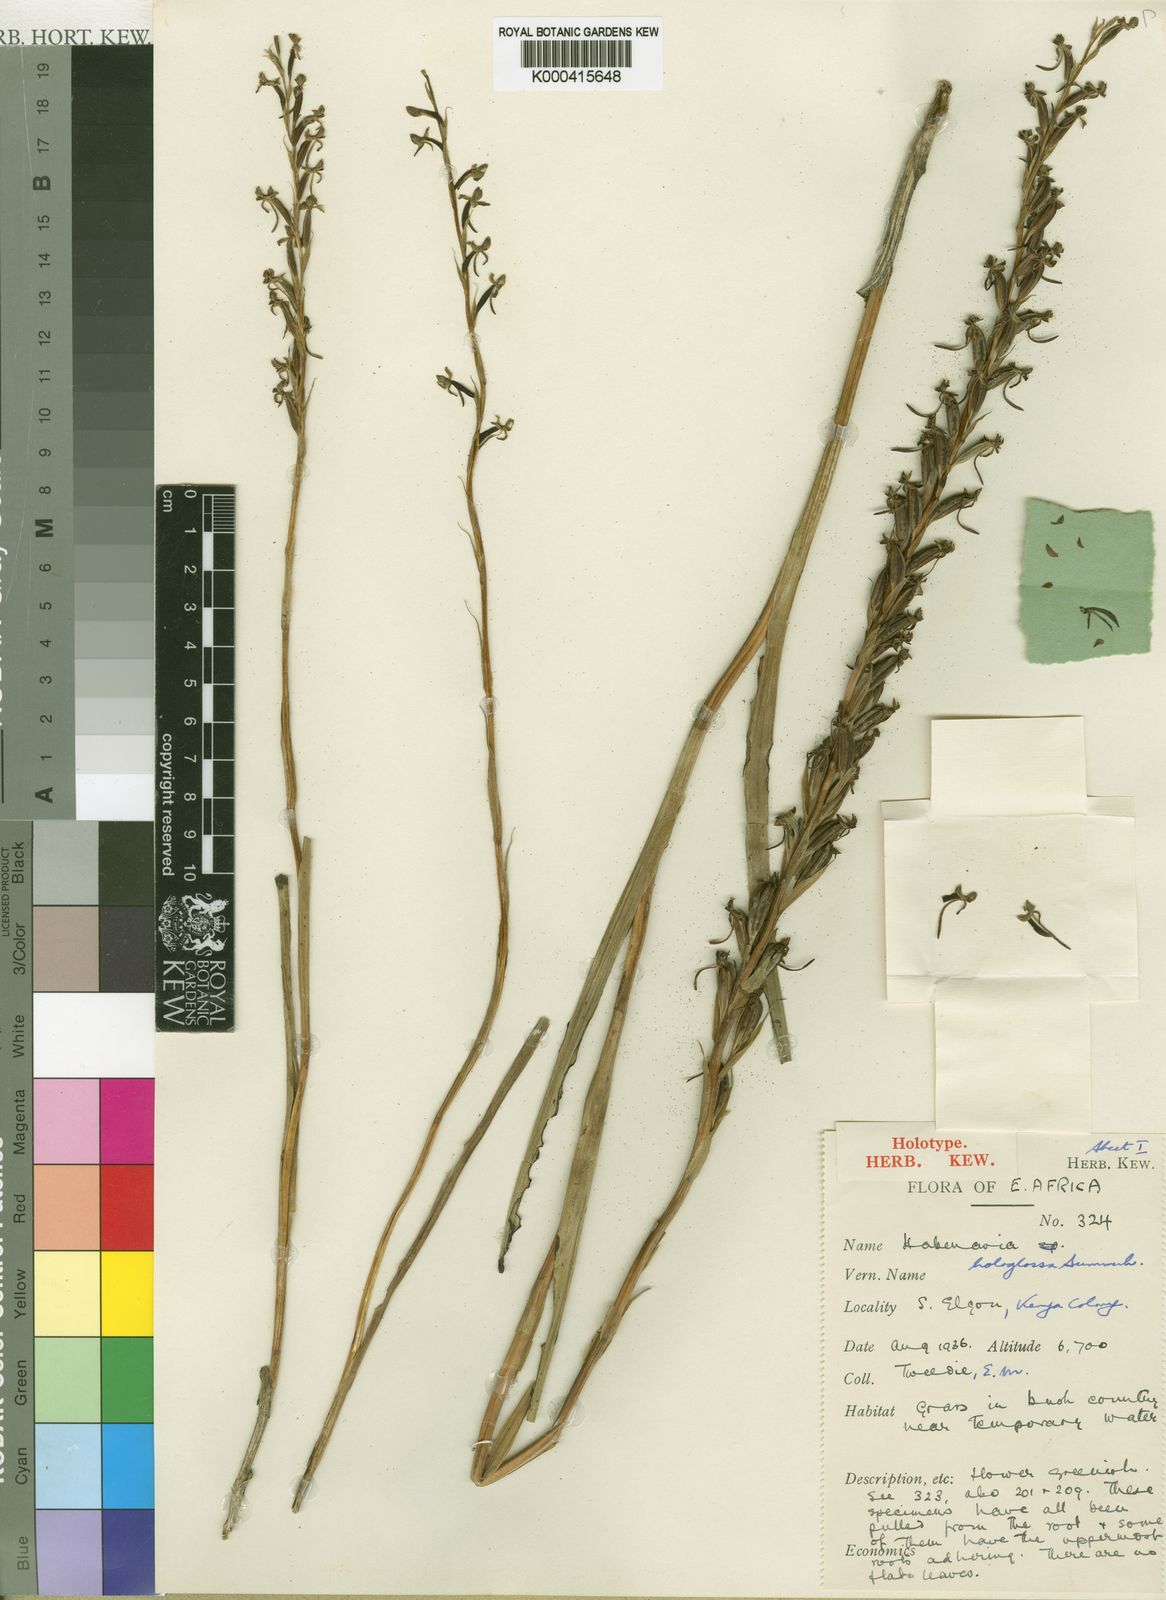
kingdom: Plantae
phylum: Tracheophyta
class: Liliopsida
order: Asparagales
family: Orchidaceae
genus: Habenaria
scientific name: Habenaria hologlossa
